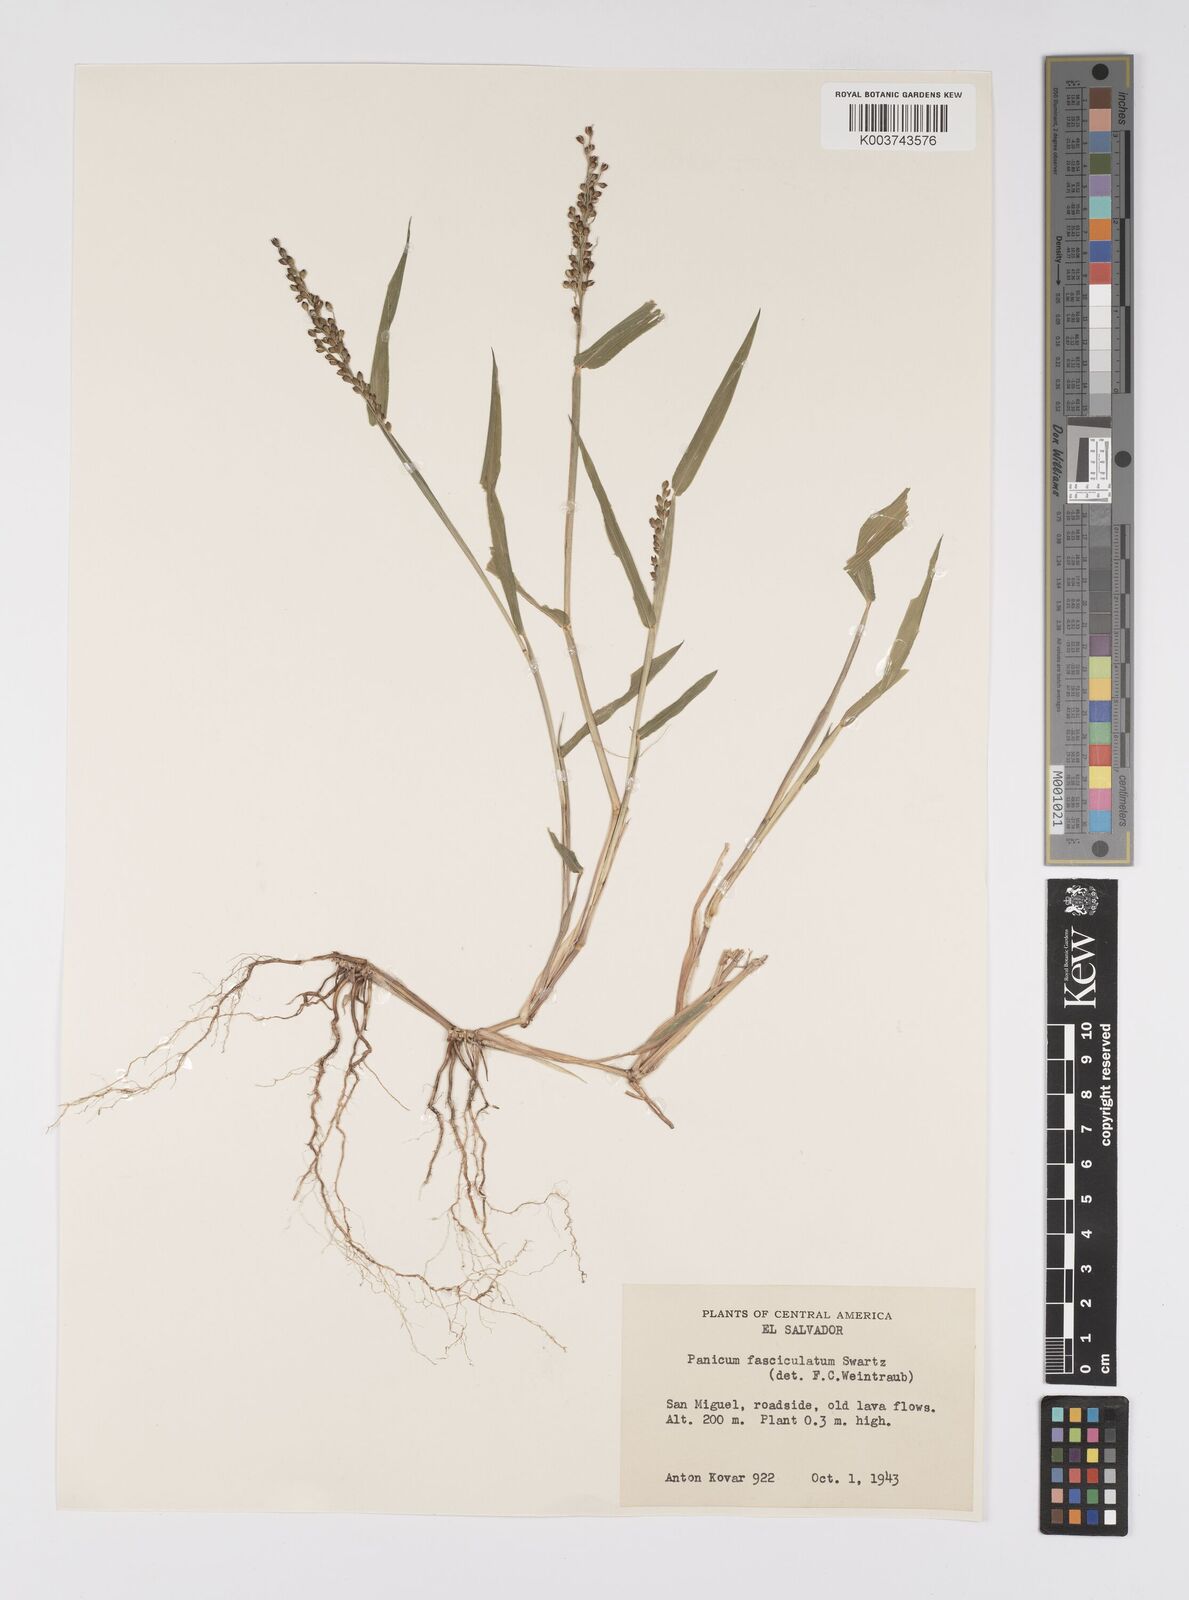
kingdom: Plantae
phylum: Tracheophyta
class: Liliopsida
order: Poales
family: Poaceae
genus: Urochloa
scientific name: Urochloa fusca
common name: Browntop signal grass
